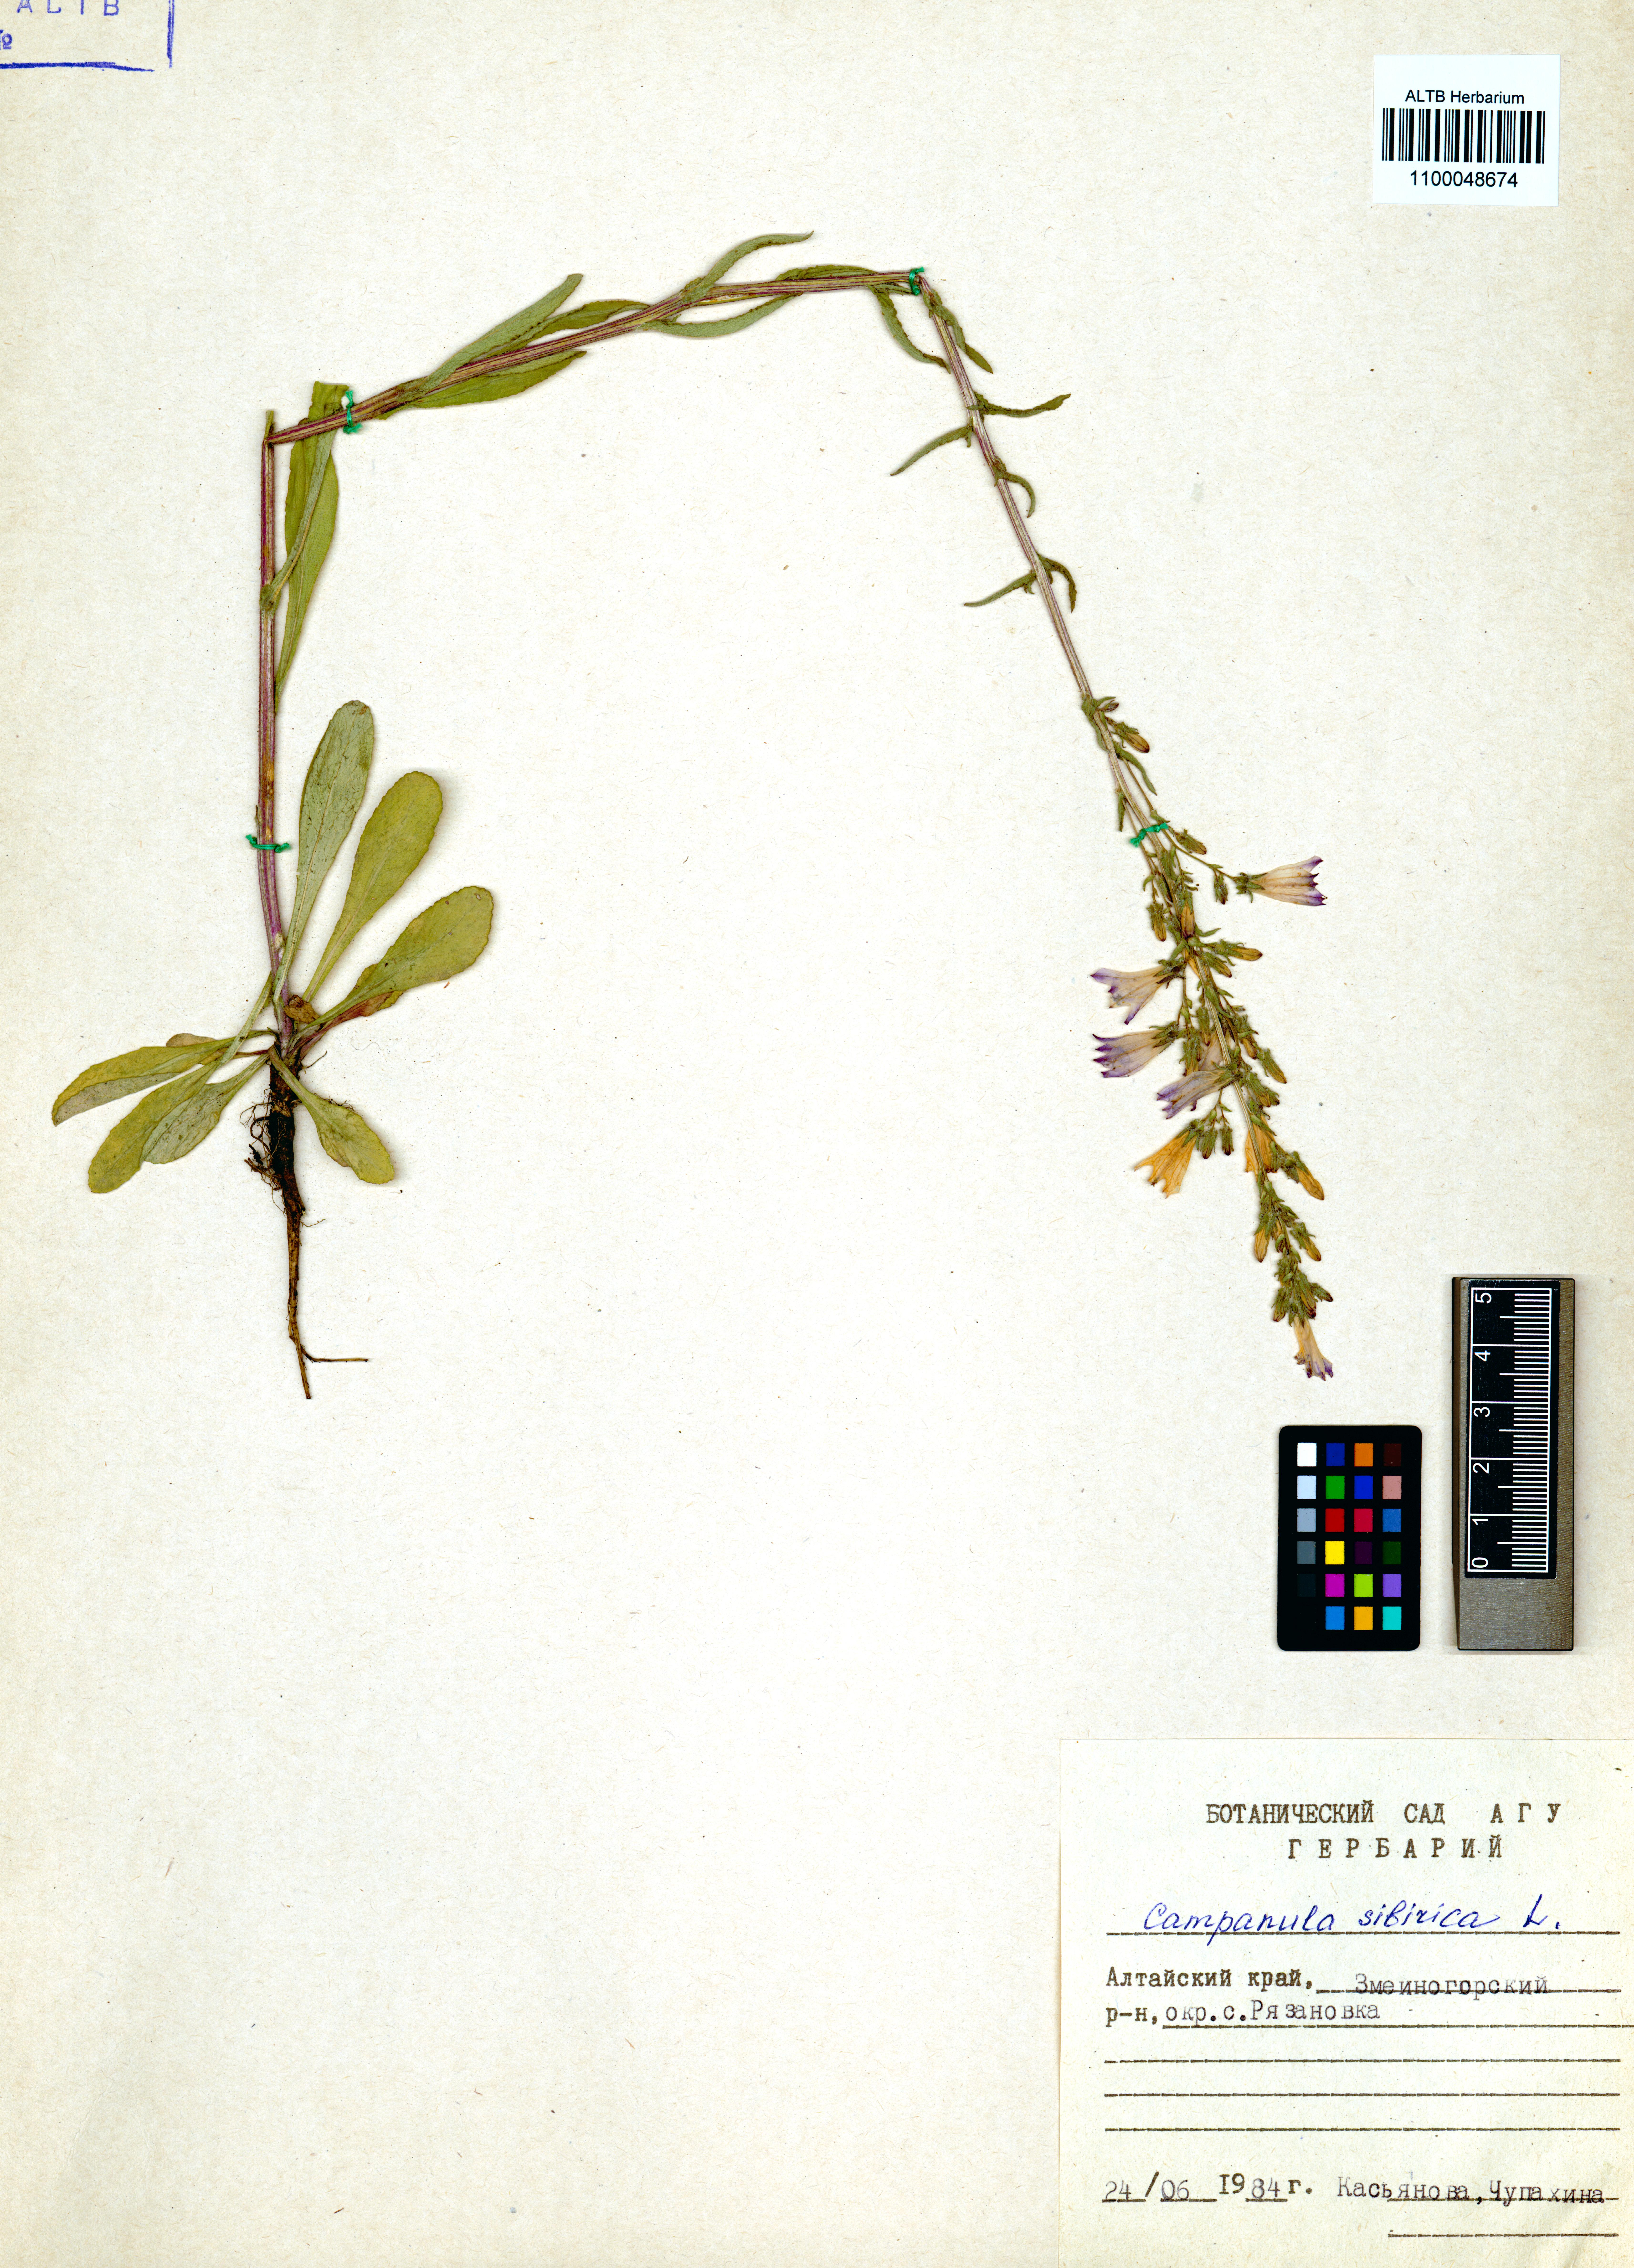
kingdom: Plantae
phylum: Tracheophyta
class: Magnoliopsida
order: Asterales
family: Campanulaceae
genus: Campanula
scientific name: Campanula sibirica
